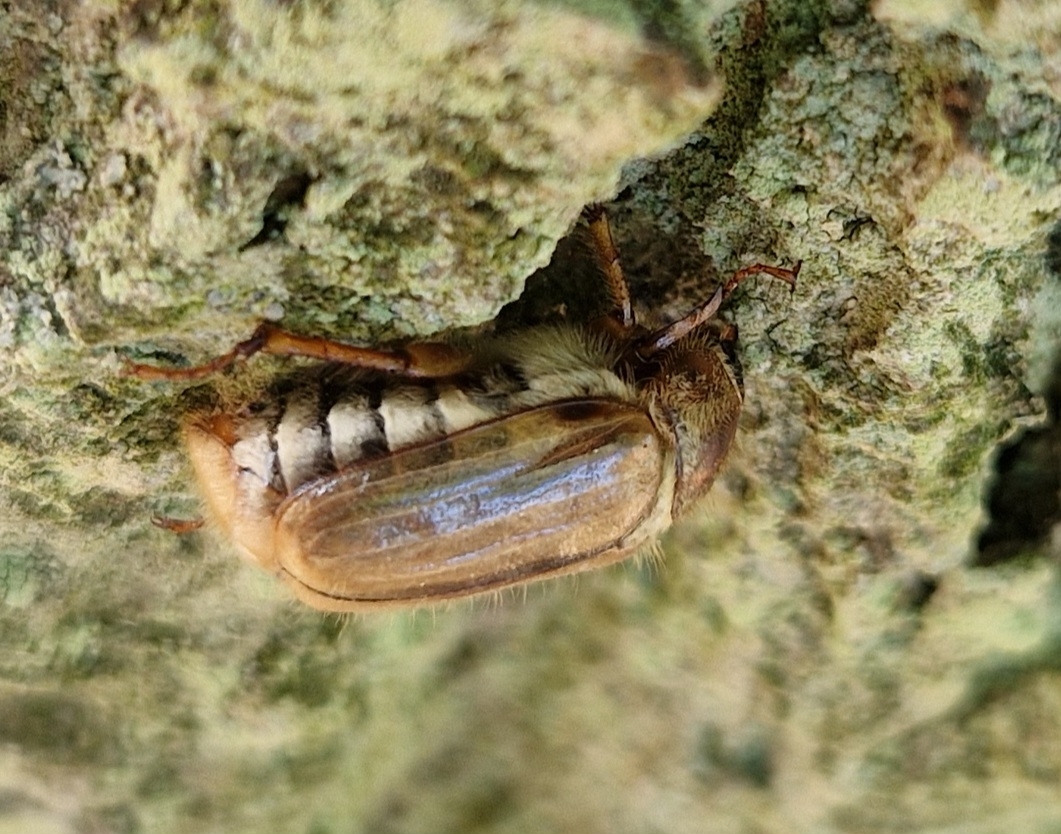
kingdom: Animalia
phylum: Arthropoda
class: Insecta
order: Coleoptera
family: Scarabaeidae
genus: Amphimallon
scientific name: Amphimallon solstitiale
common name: Sankthansoldenborre
